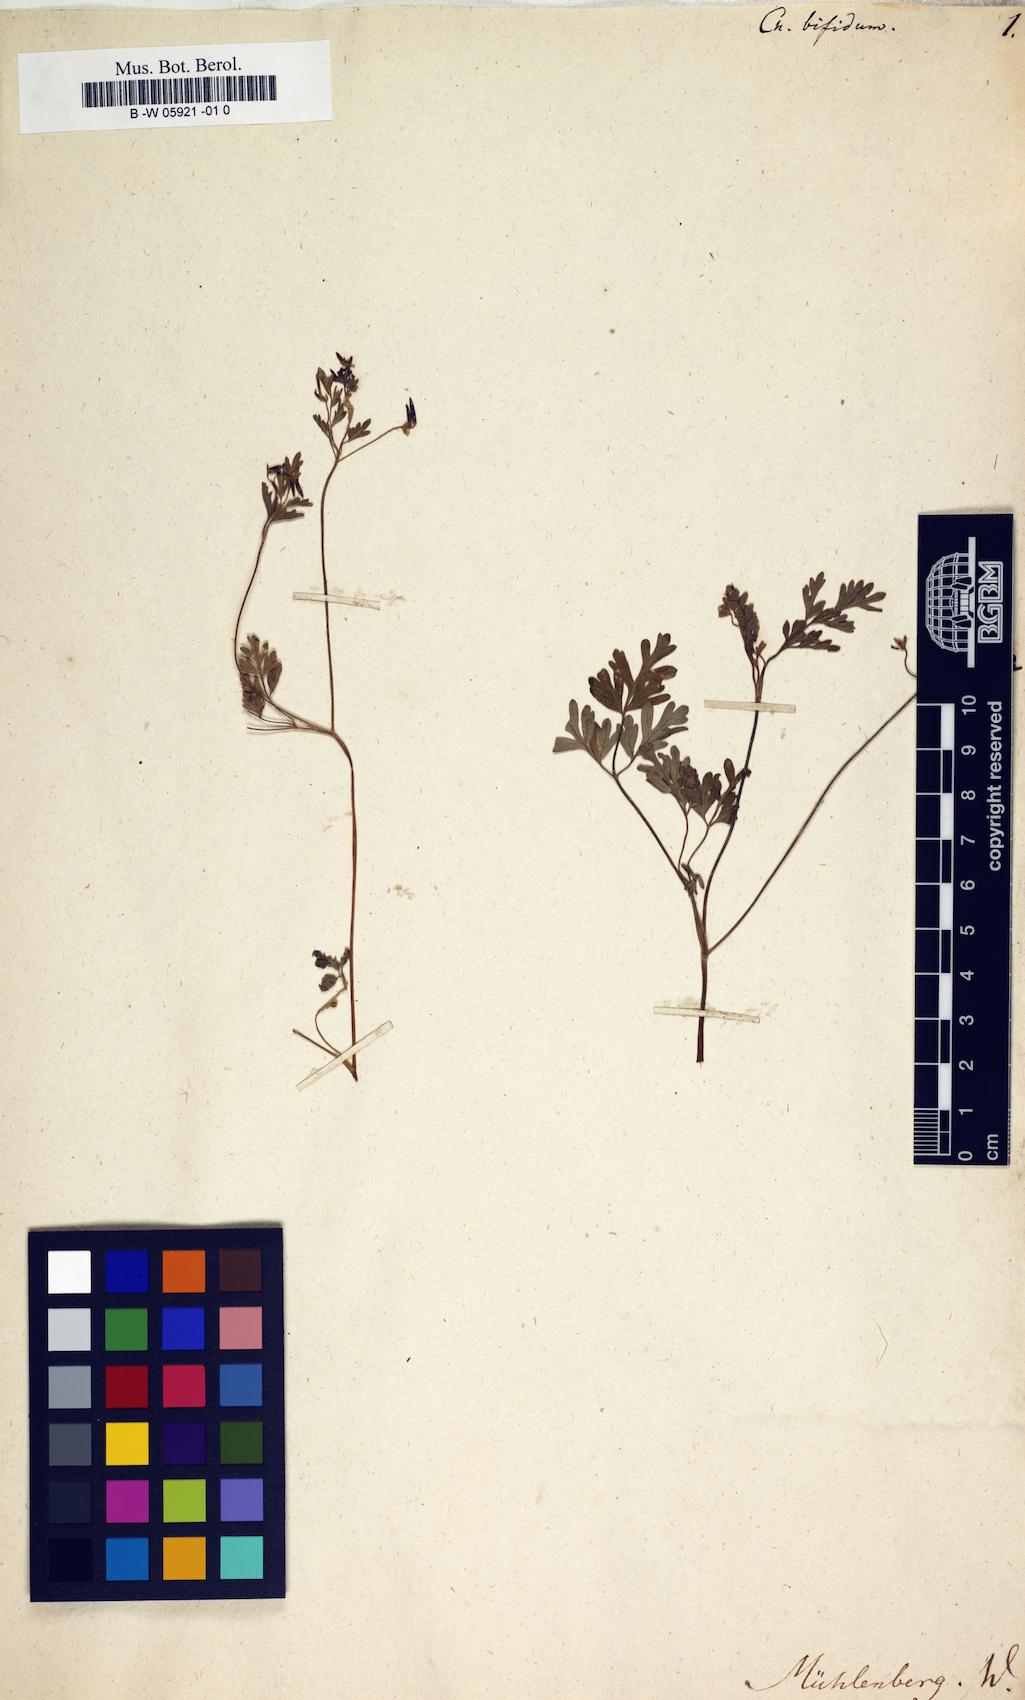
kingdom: Plantae
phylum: Tracheophyta
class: Magnoliopsida
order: Apiales
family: Apiaceae
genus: Chaerophyllum
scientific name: Chaerophyllum procumbens
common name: Spreading chervil
